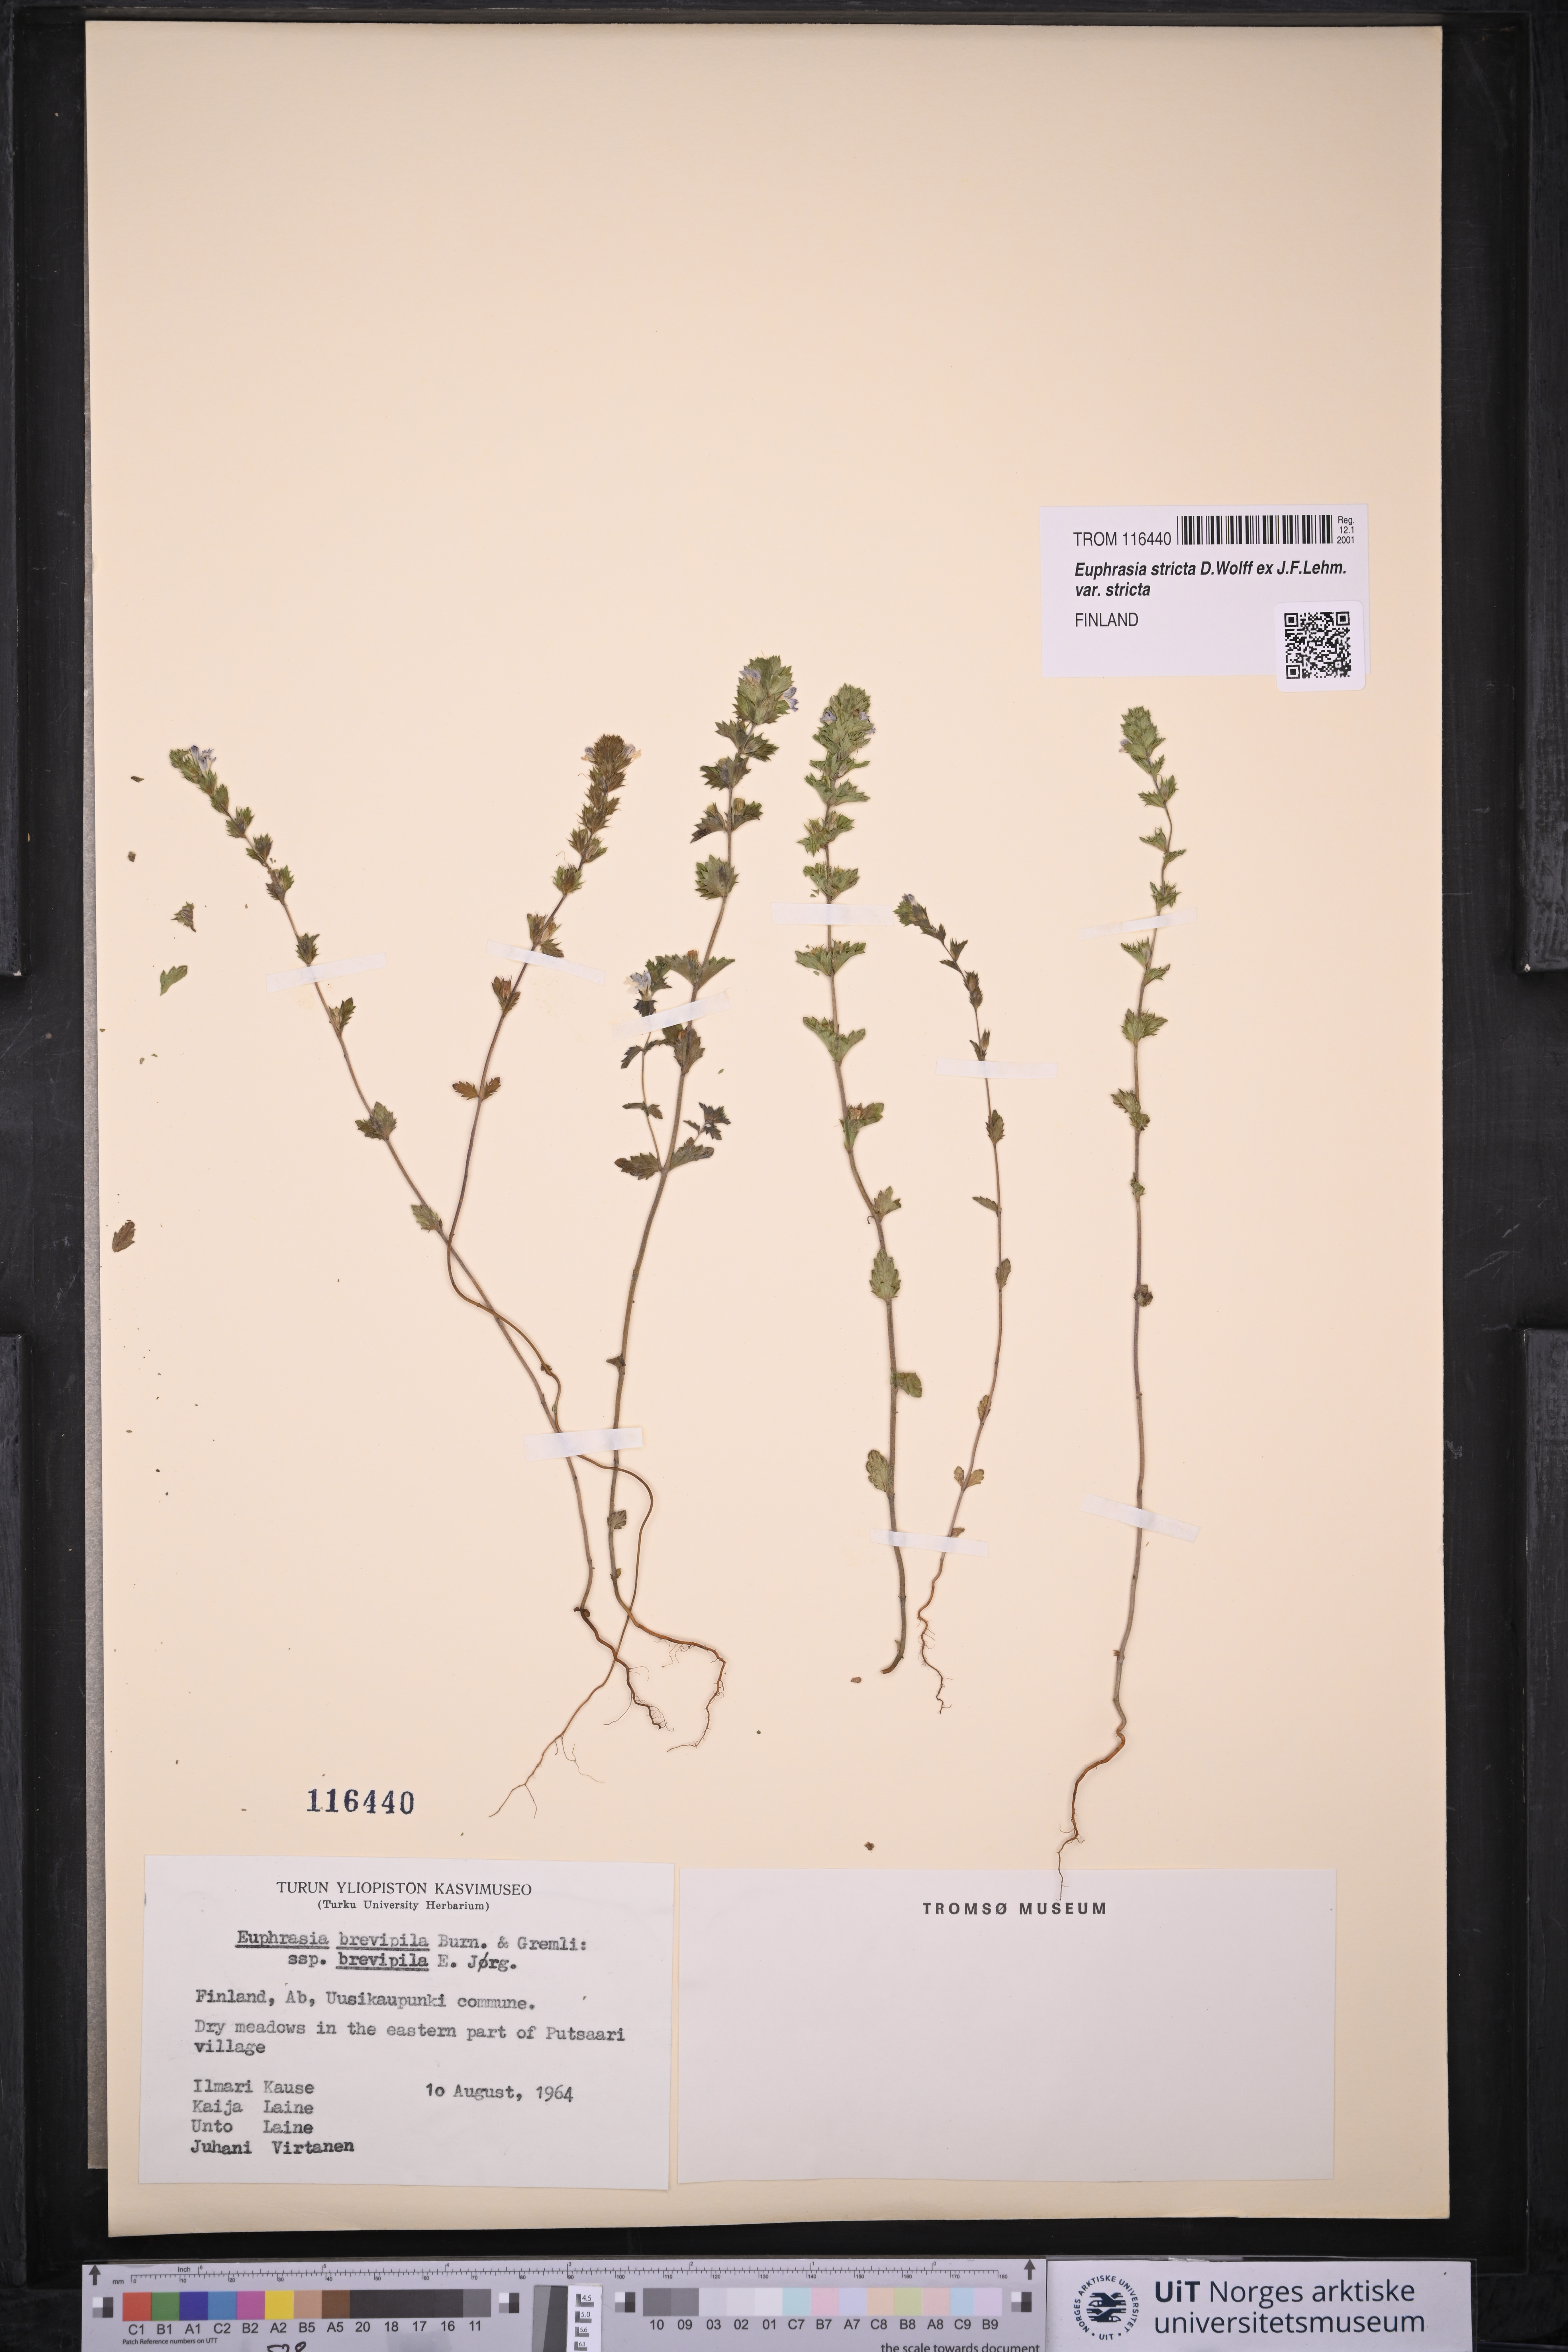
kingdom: Plantae
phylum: Tracheophyta
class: Magnoliopsida
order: Lamiales
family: Orobanchaceae
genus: Euphrasia
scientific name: Euphrasia vernalis
